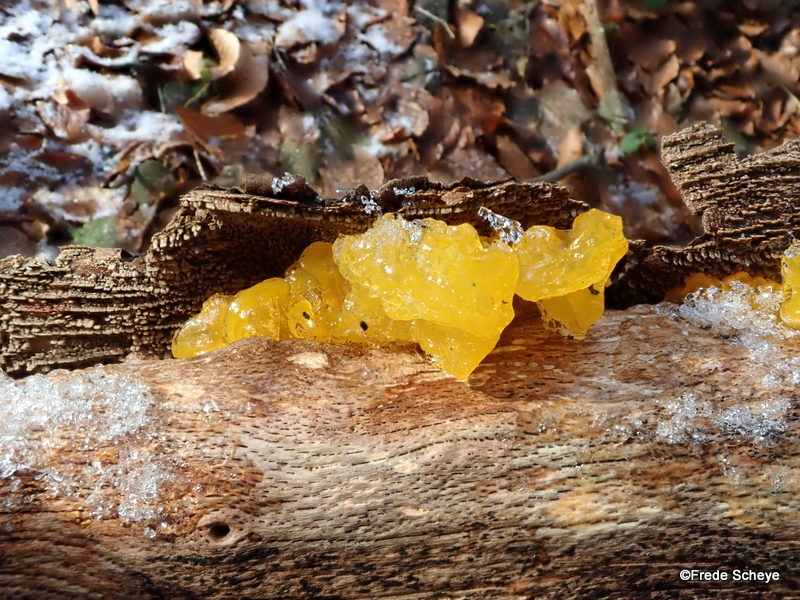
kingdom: Fungi
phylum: Basidiomycota
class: Tremellomycetes
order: Tremellales
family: Tremellaceae
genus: Tremella
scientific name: Tremella mesenterica
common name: gul bævresvamp
